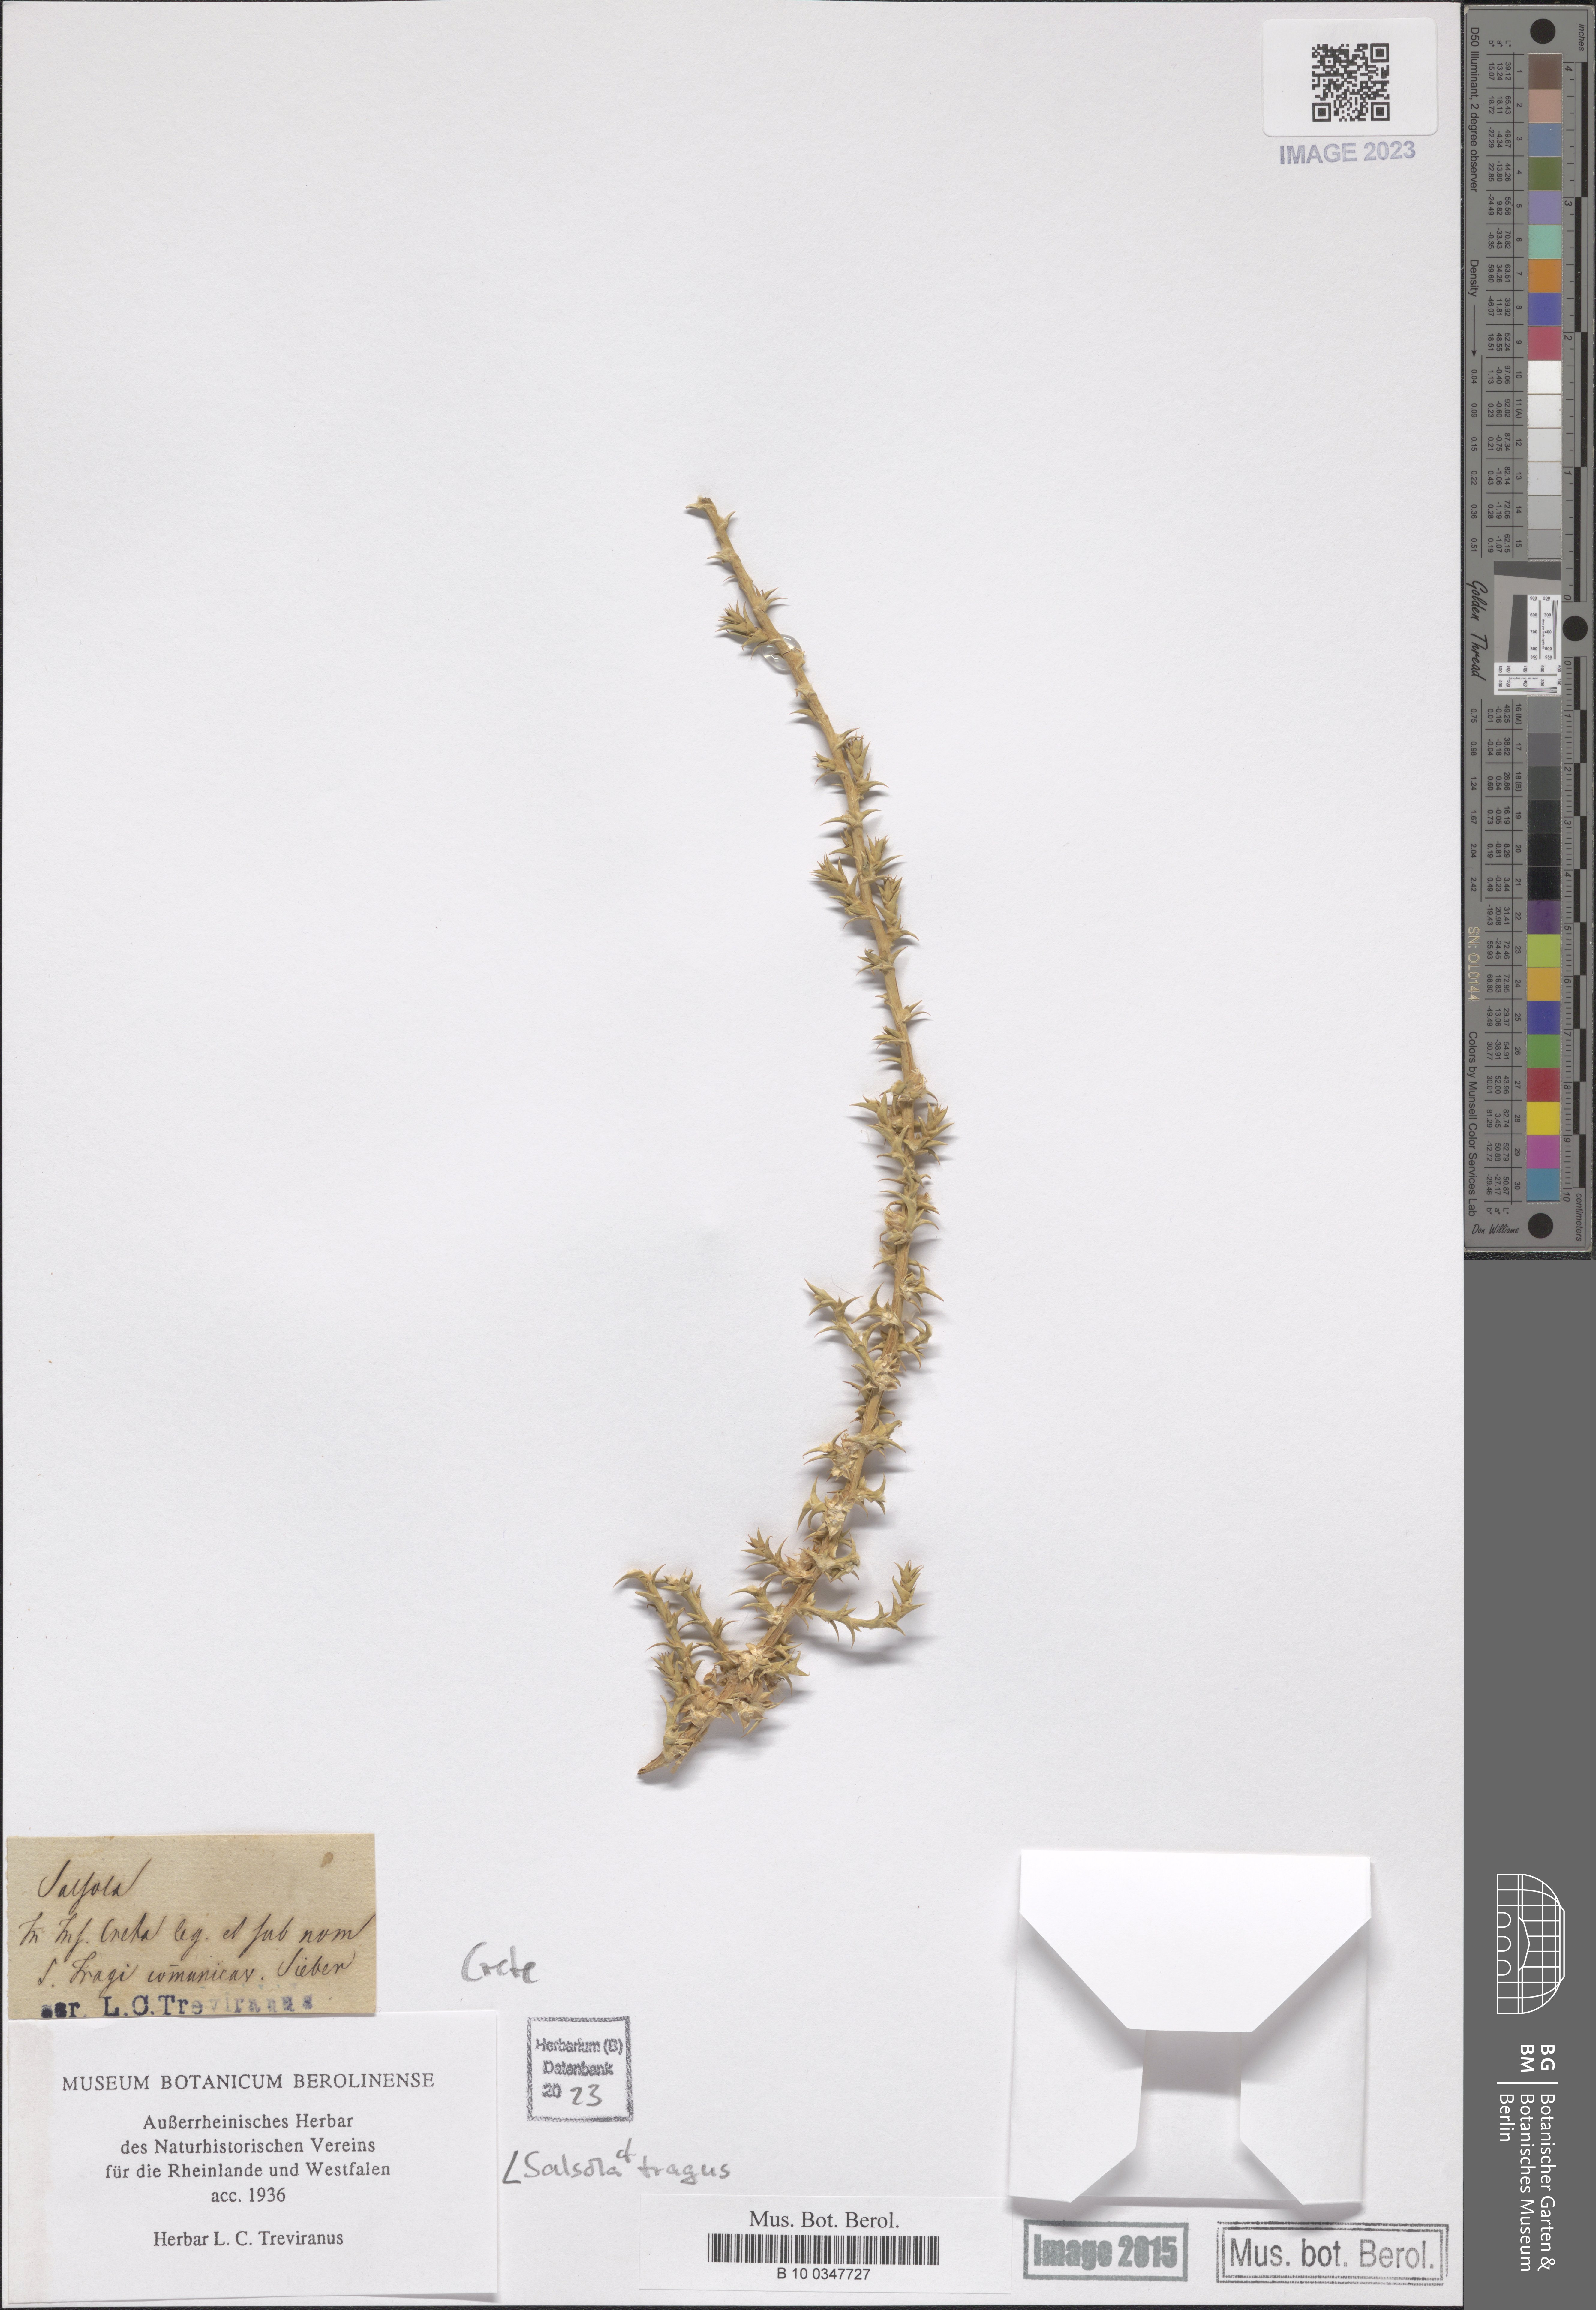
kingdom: Plantae
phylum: Tracheophyta
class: Magnoliopsida
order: Caryophyllales
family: Amaranthaceae
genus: Salsola
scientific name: Salsola tragus
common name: Prickly russian thistle
